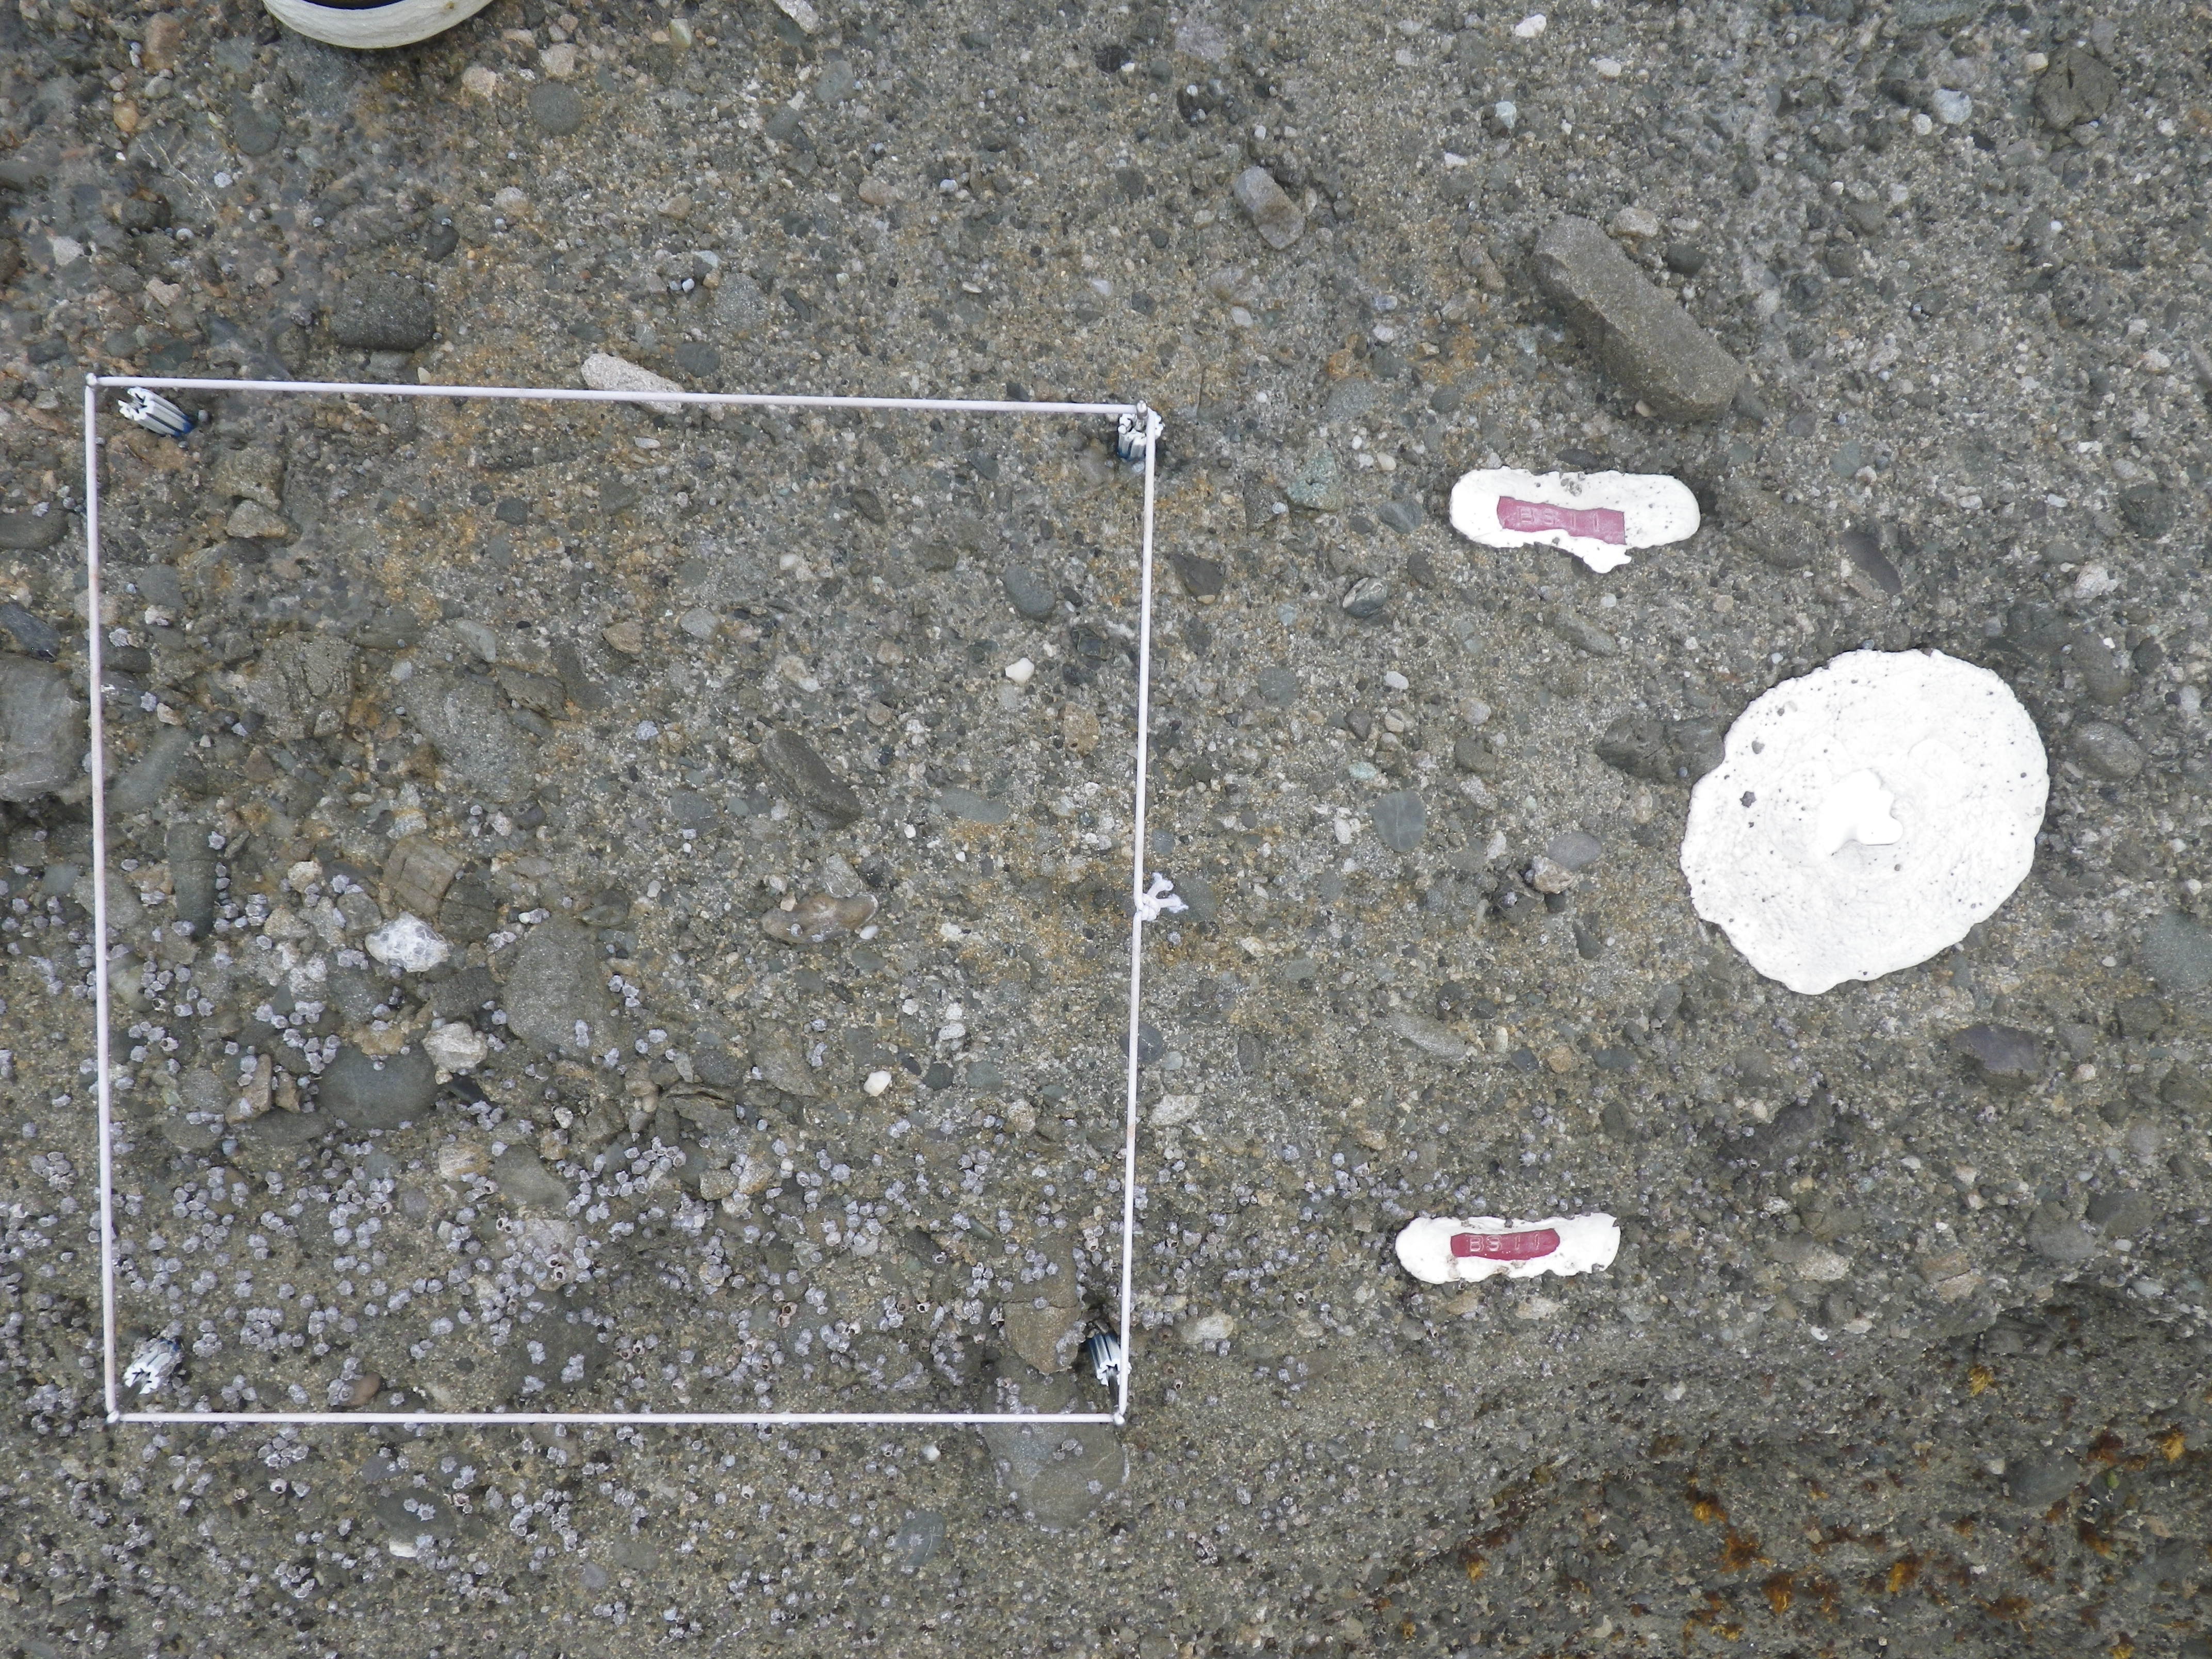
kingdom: Animalia
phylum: Arthropoda
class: Maxillopoda
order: Sessilia
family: Chthamalidae
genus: Chthamalus
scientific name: Chthamalus challengeri
